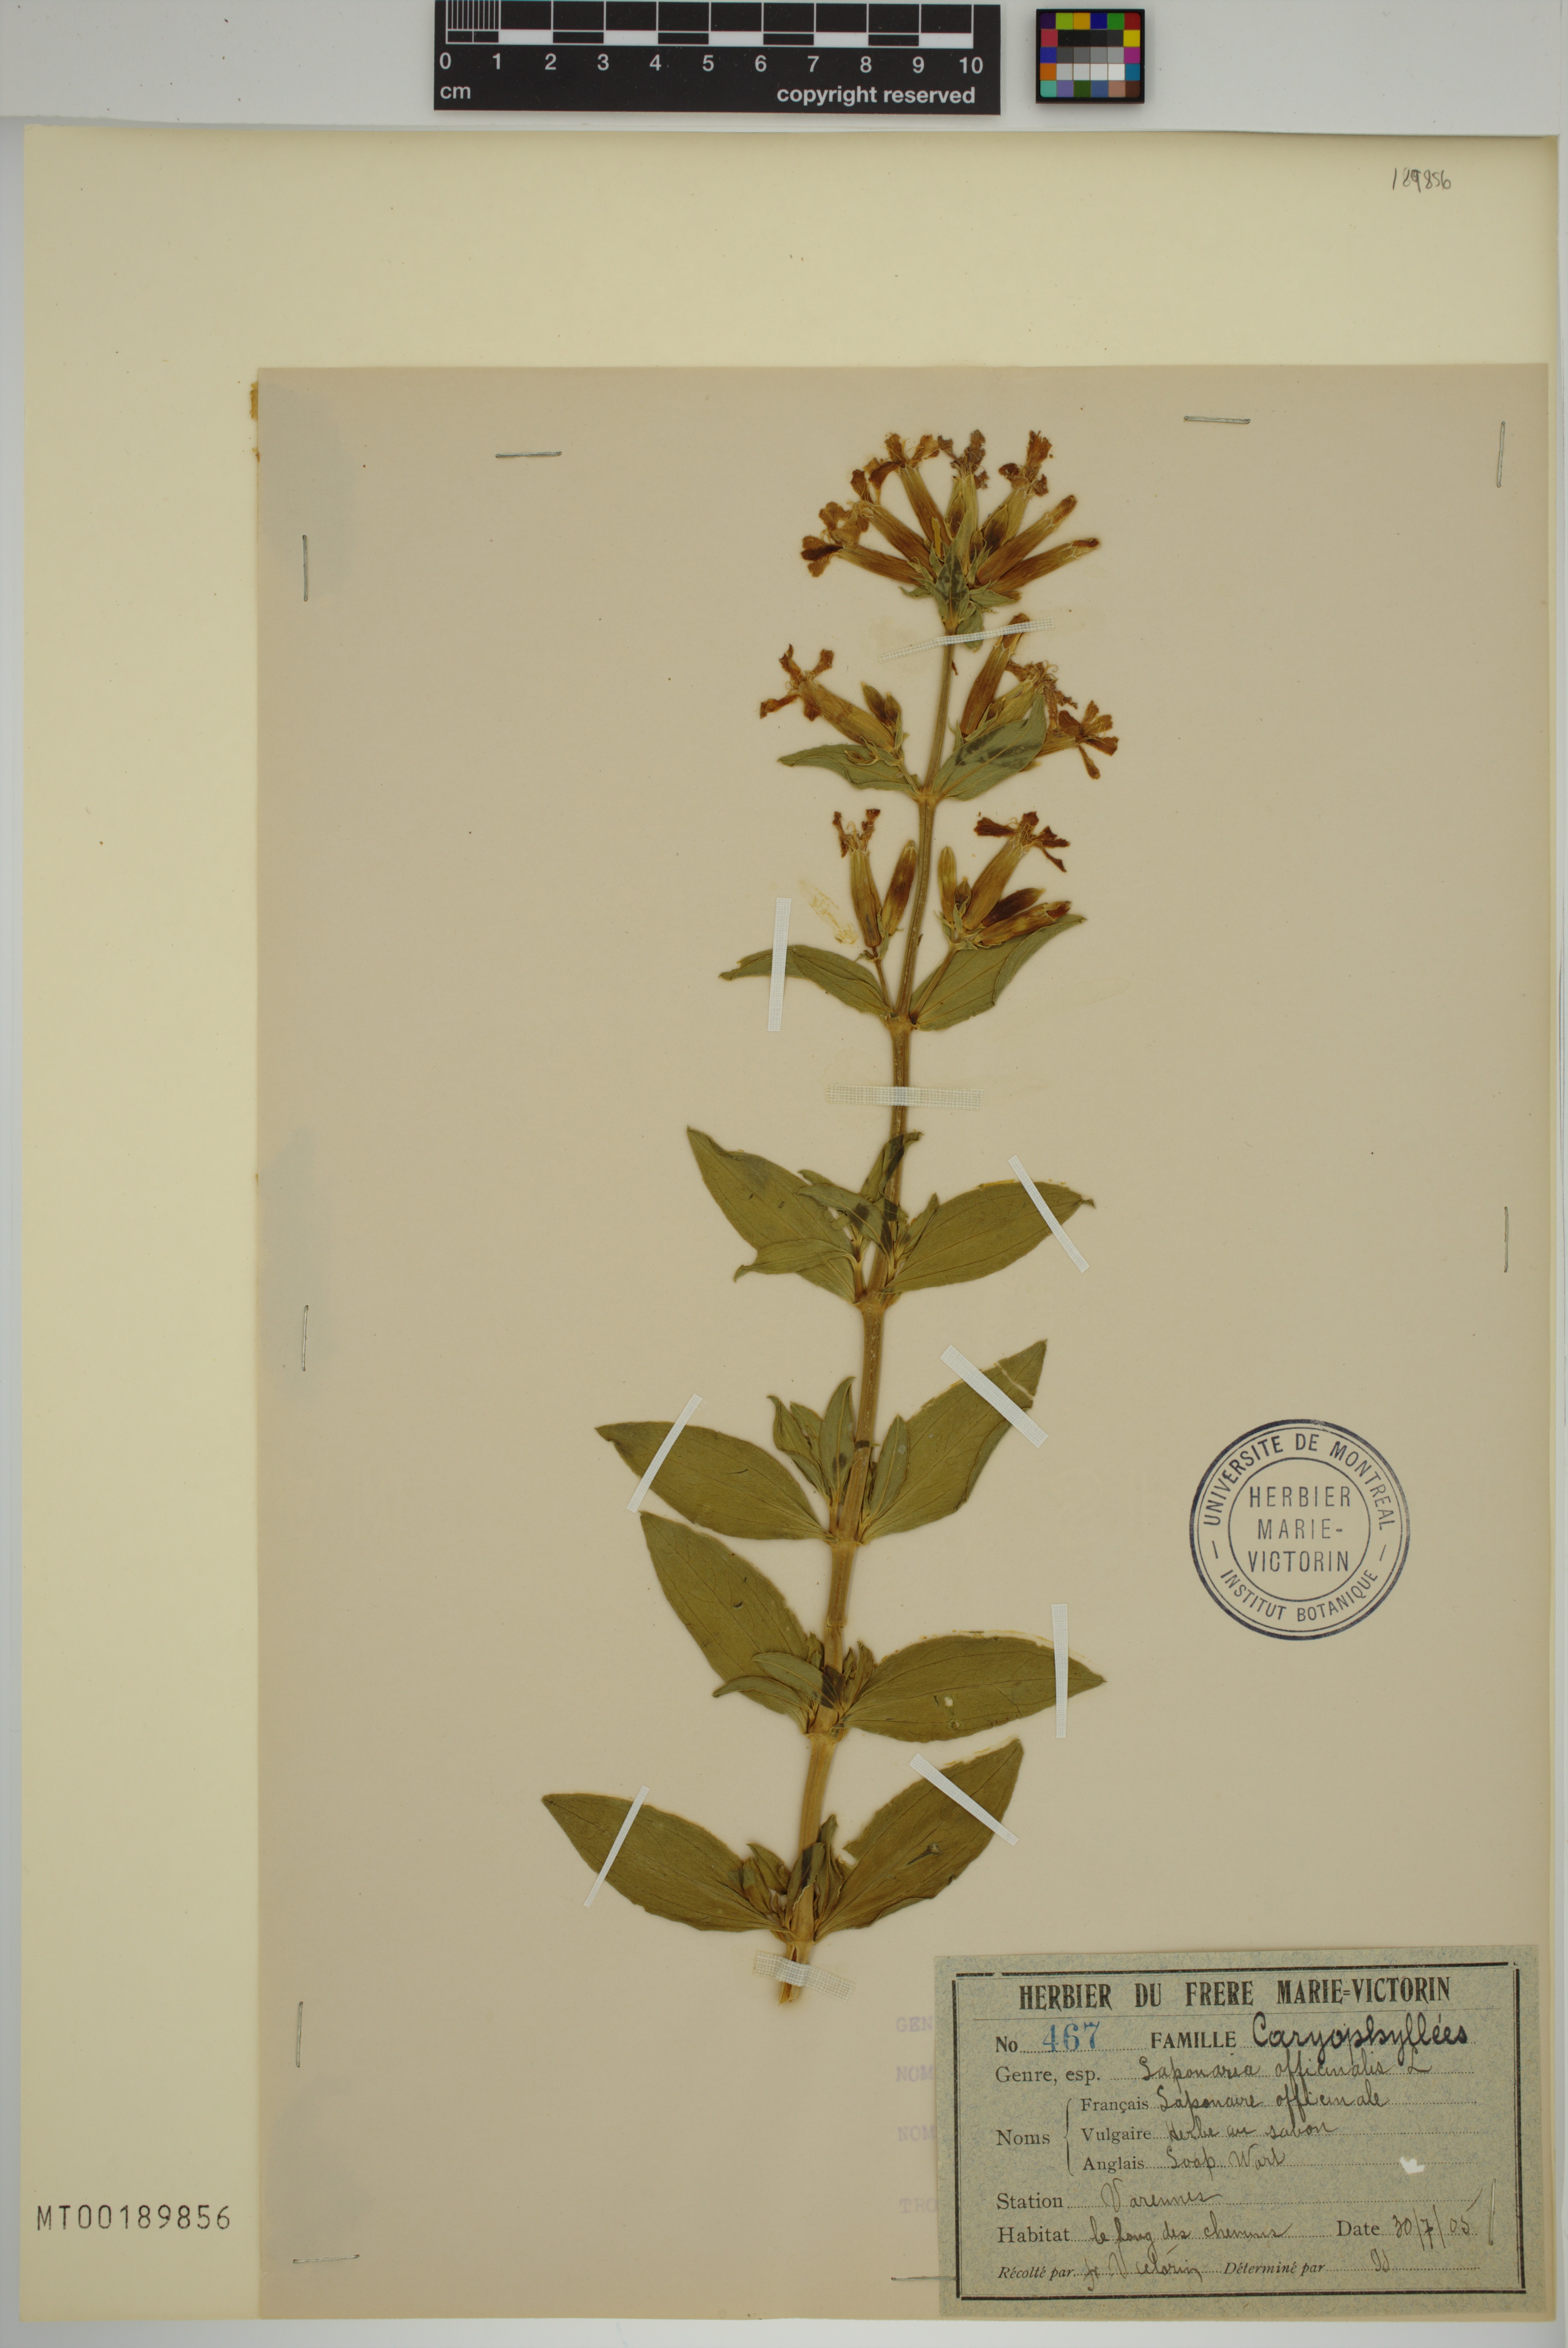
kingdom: Plantae
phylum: Tracheophyta
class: Magnoliopsida
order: Caryophyllales
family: Caryophyllaceae
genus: Saponaria
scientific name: Saponaria officinalis
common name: Soapwort
